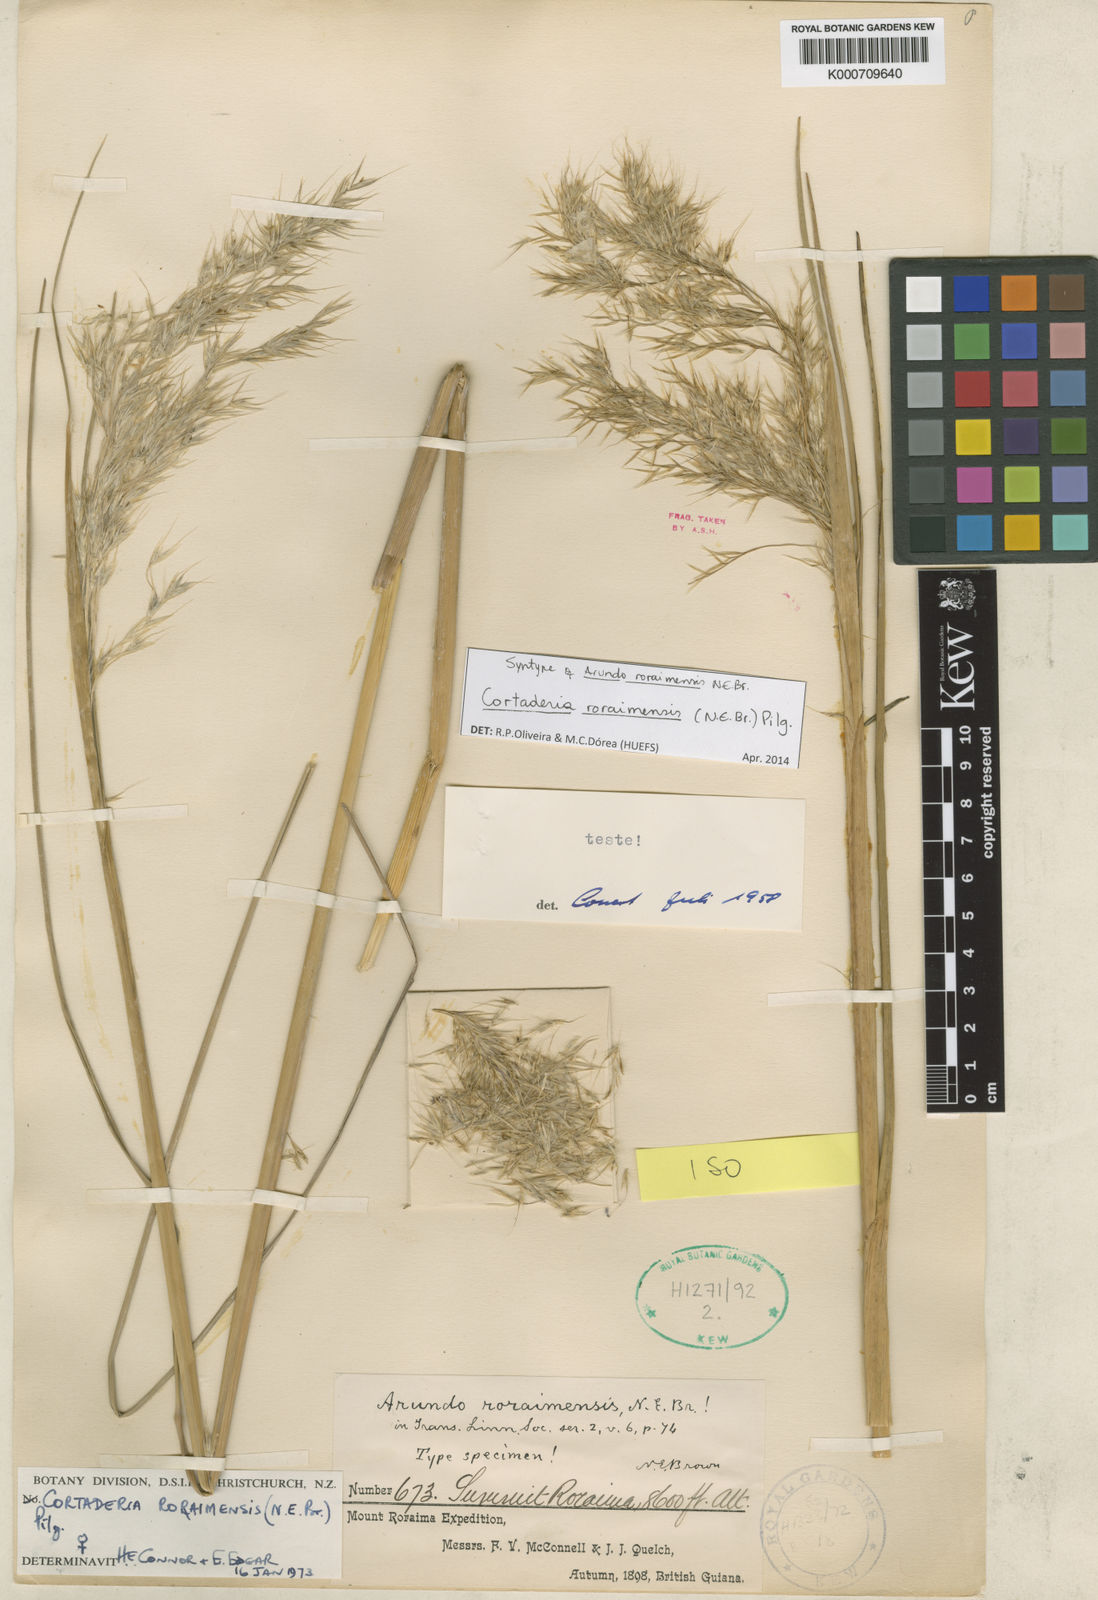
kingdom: Plantae
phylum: Tracheophyta
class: Liliopsida
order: Poales
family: Poaceae
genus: Cortaderia
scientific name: Cortaderia roraimensis
